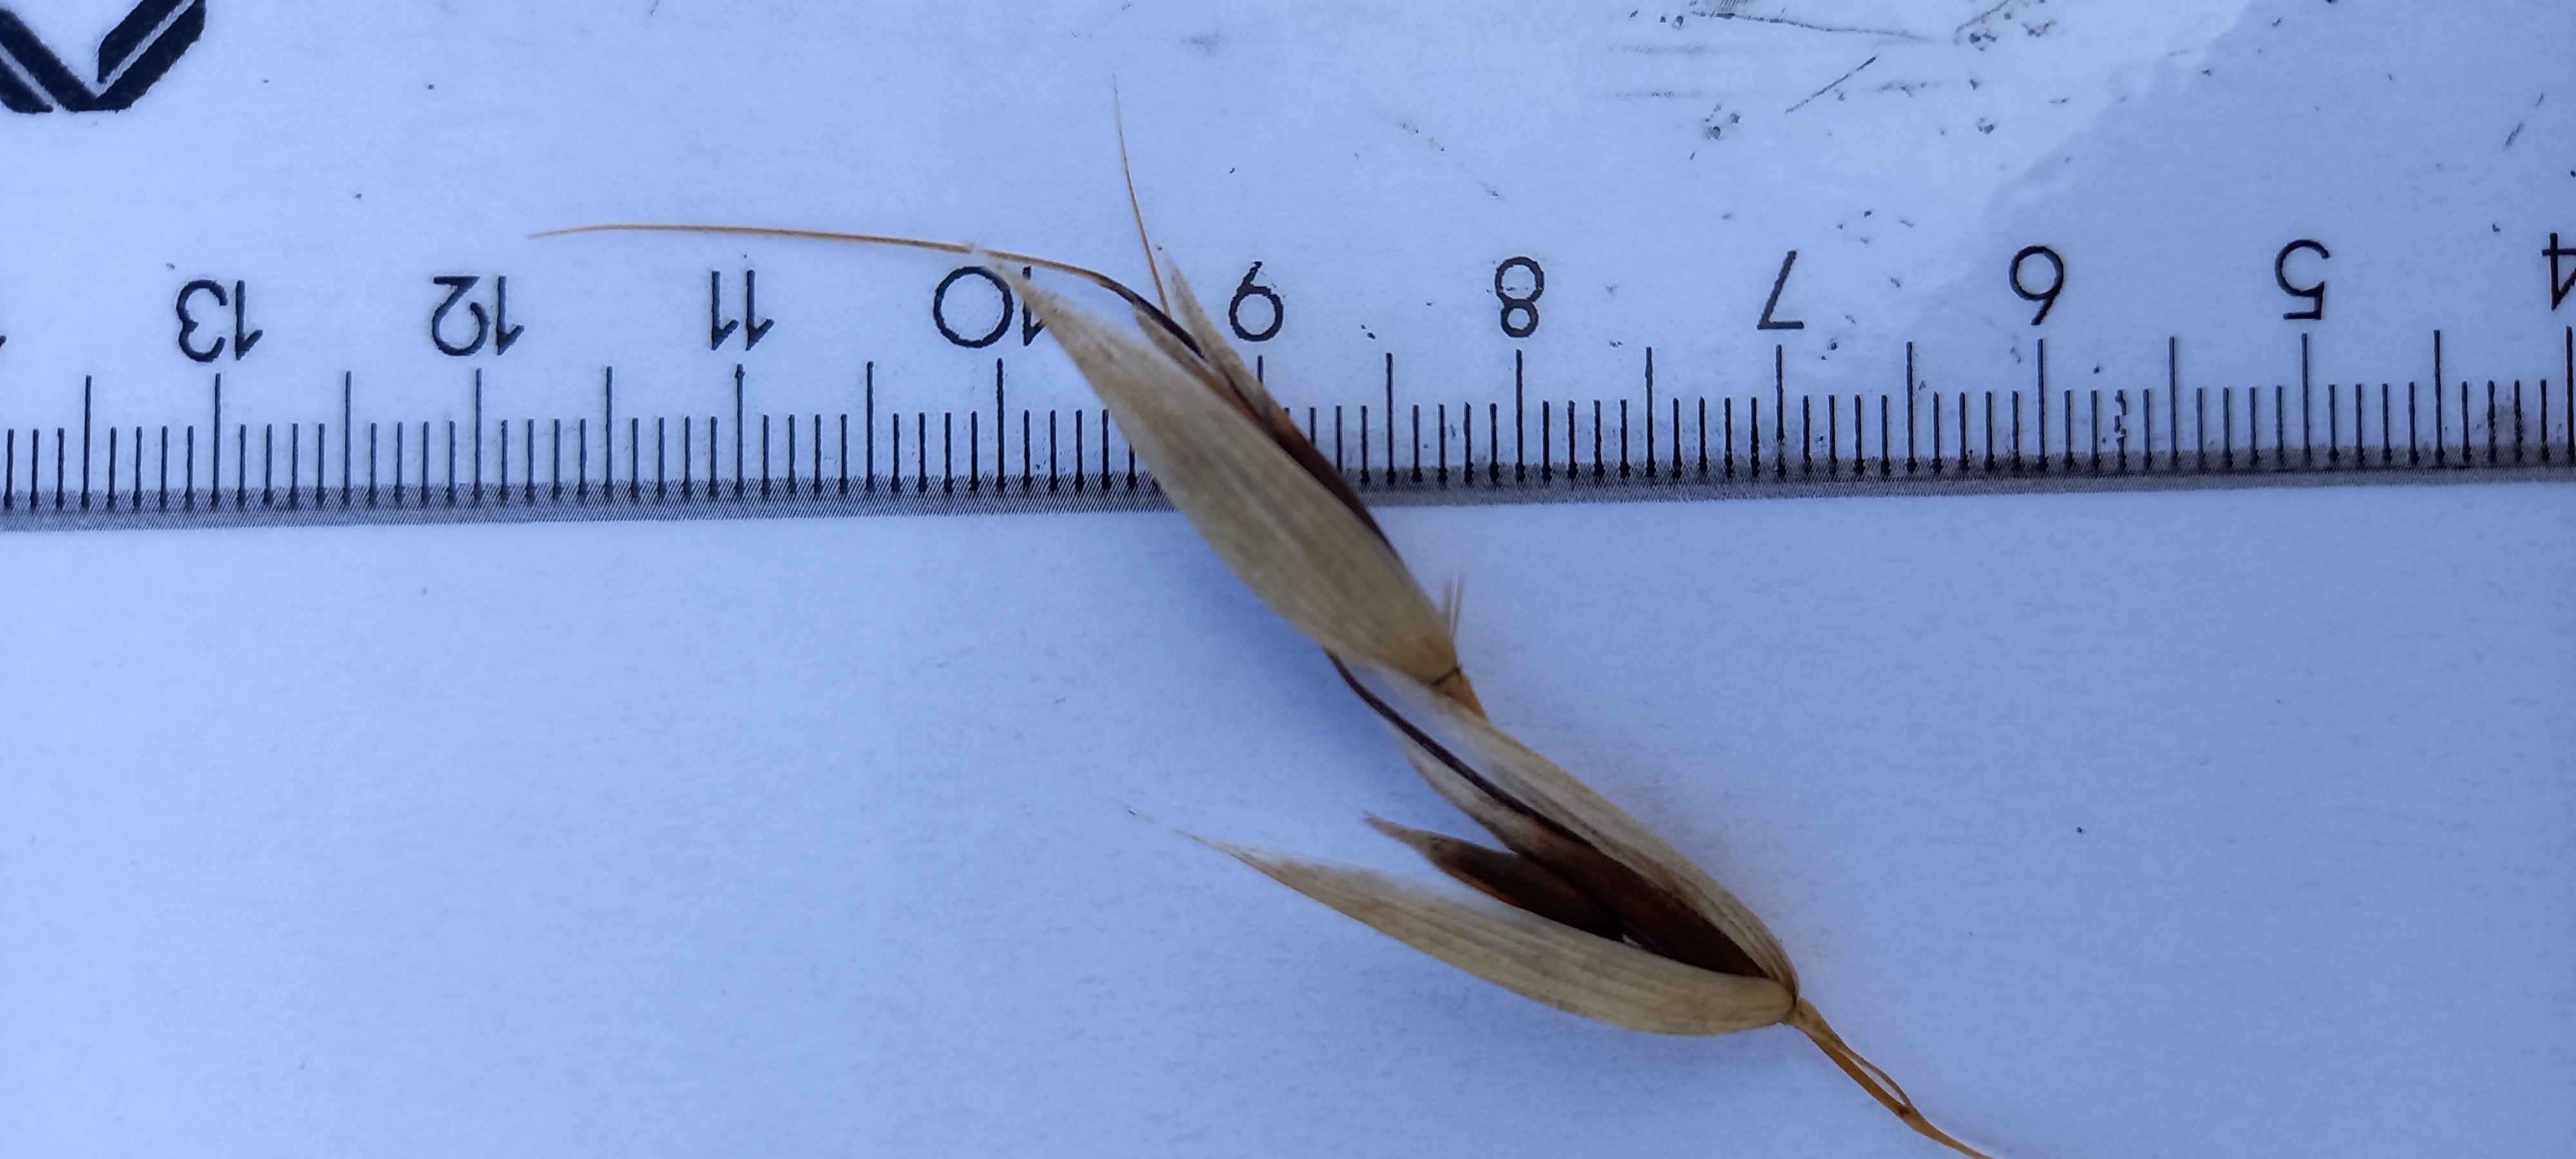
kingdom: Plantae
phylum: Tracheophyta
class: Liliopsida
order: Poales
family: Poaceae
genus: Avena
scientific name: Avena sativa
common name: Oat
